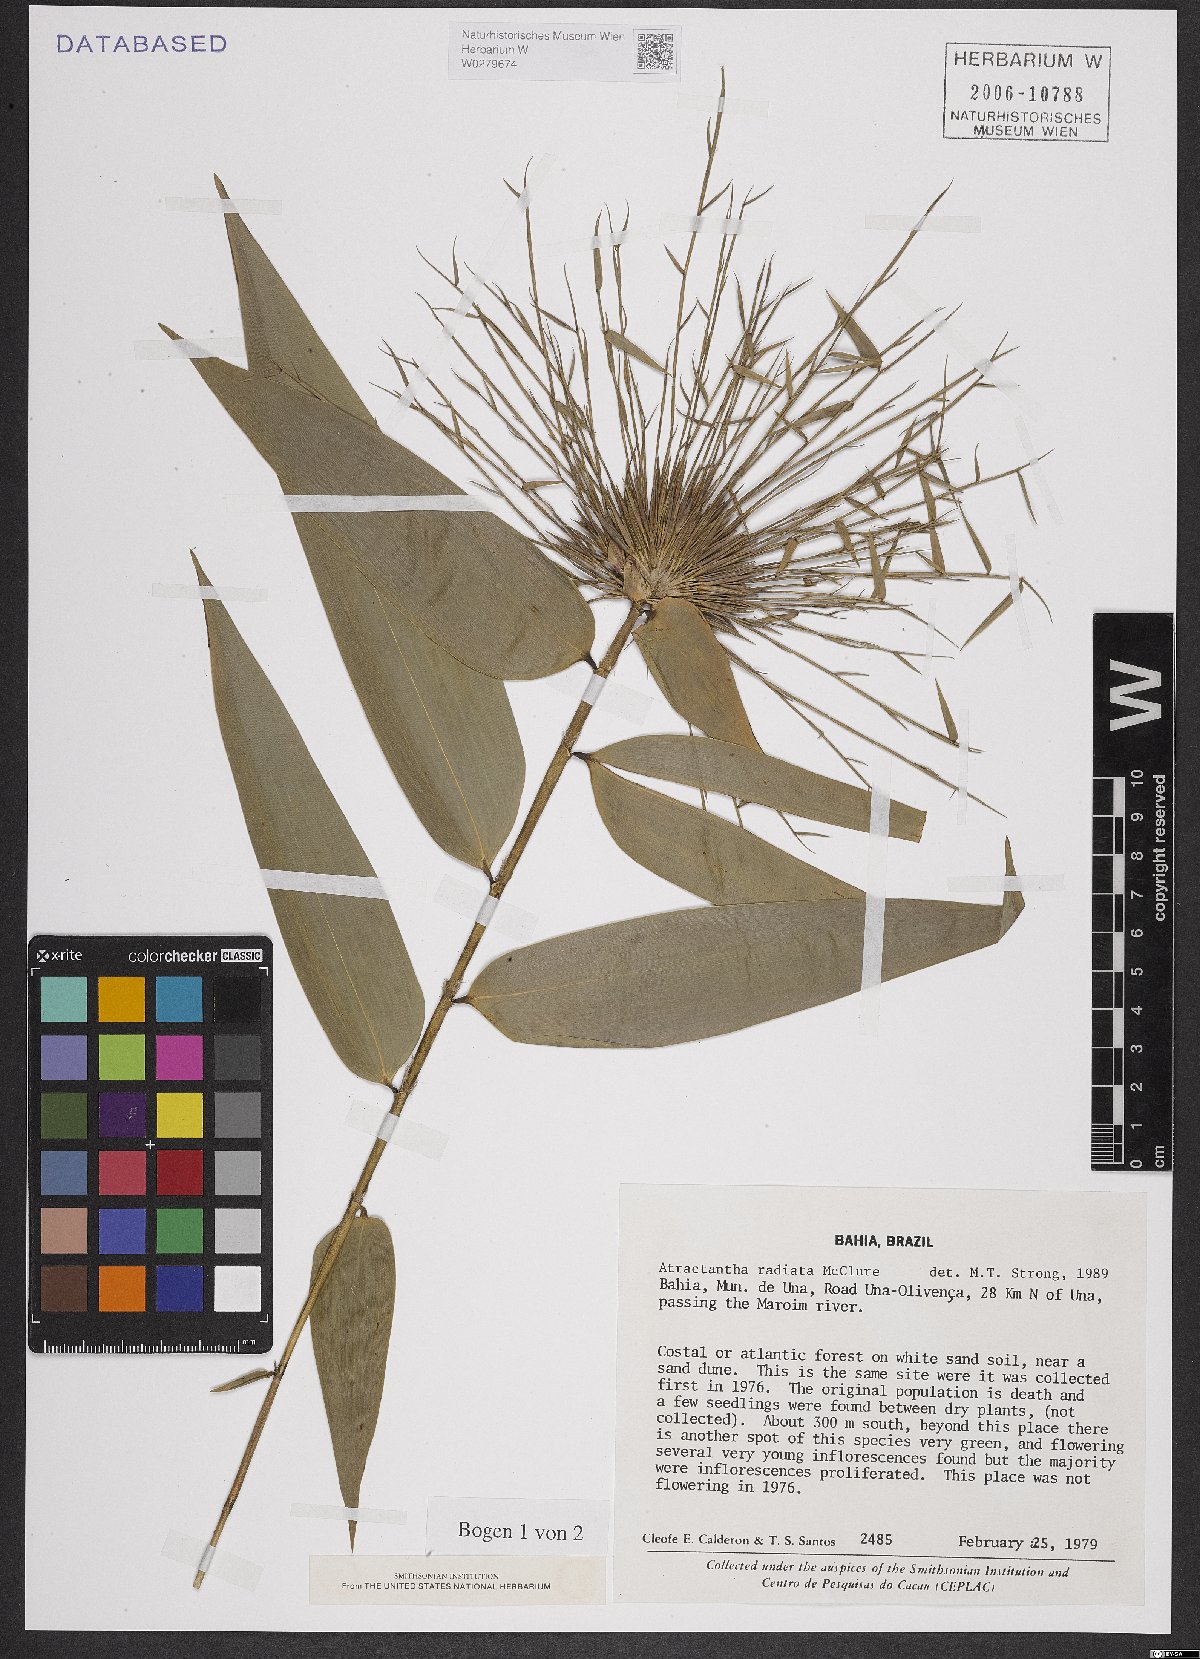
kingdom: Plantae
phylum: Tracheophyta
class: Liliopsida
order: Poales
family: Poaceae
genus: Atractantha
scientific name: Atractantha radiata
